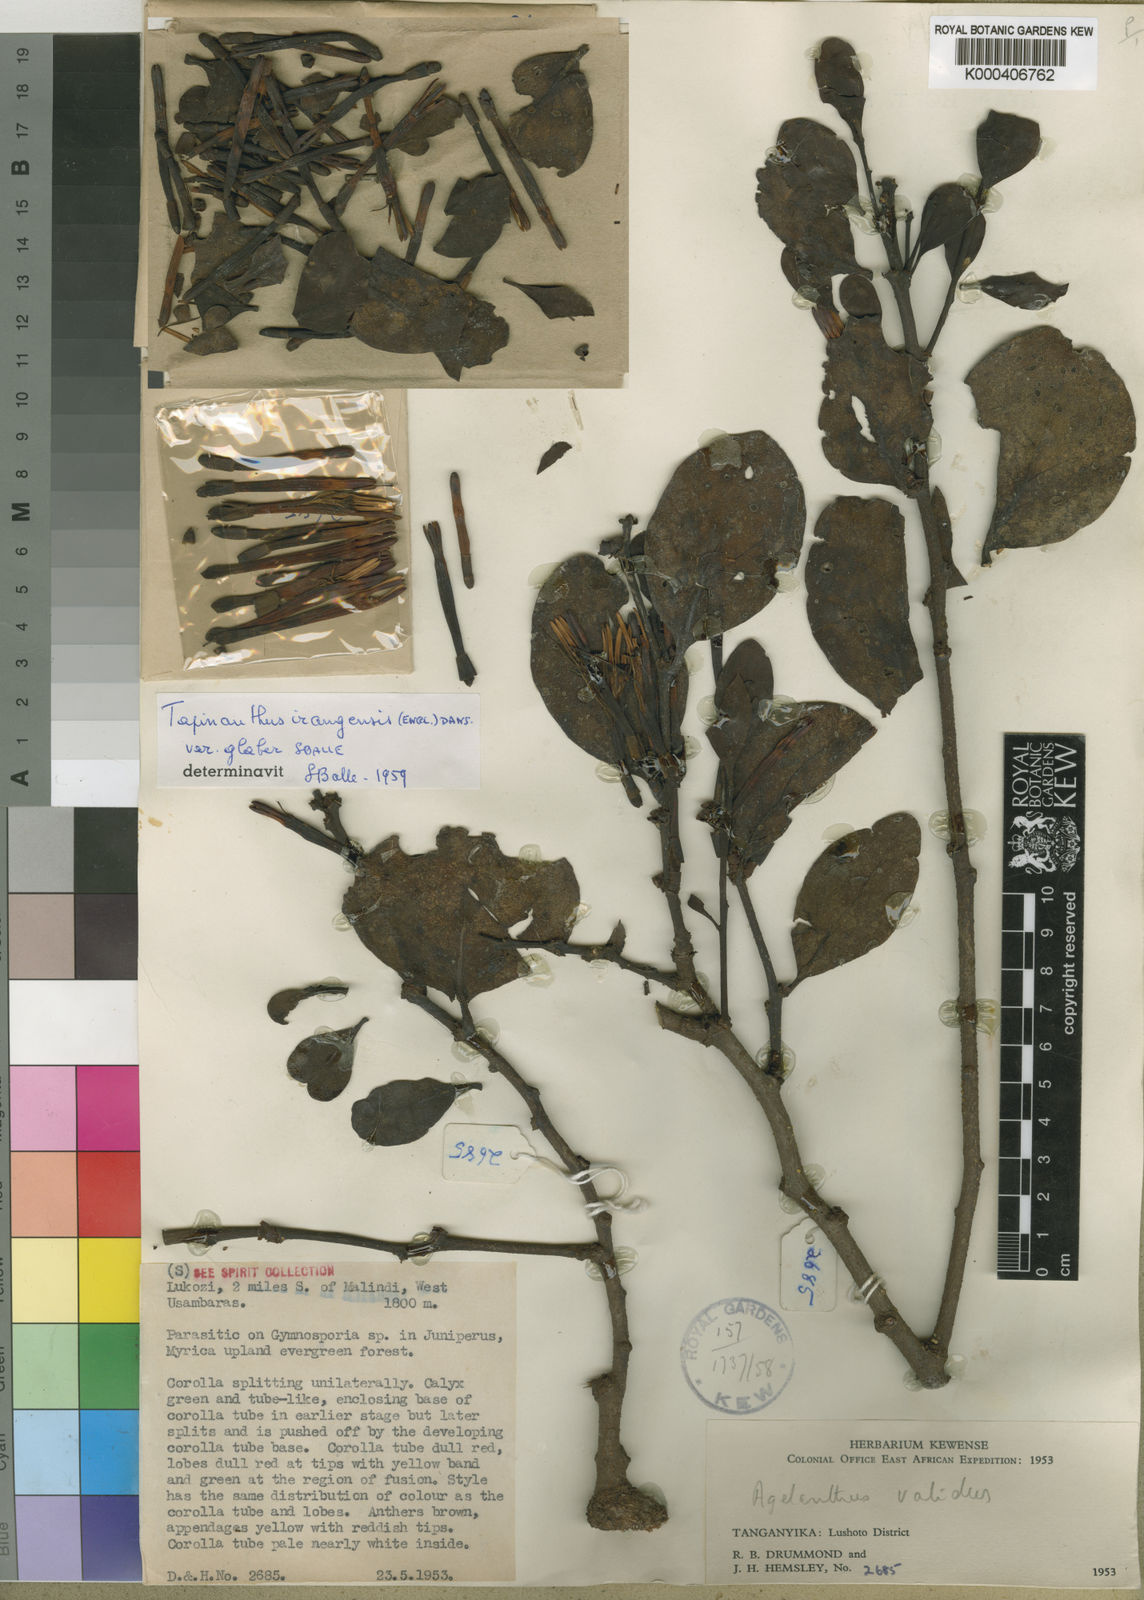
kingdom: Plantae
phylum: Tracheophyta
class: Magnoliopsida
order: Santalales
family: Loranthaceae
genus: Agelanthus
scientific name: Agelanthus validus
